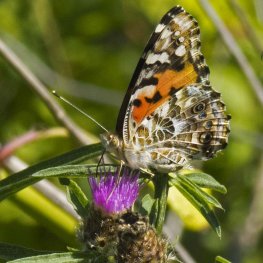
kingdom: Animalia
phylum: Arthropoda
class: Insecta
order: Lepidoptera
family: Nymphalidae
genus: Vanessa
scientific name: Vanessa cardui
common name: Painted Lady
